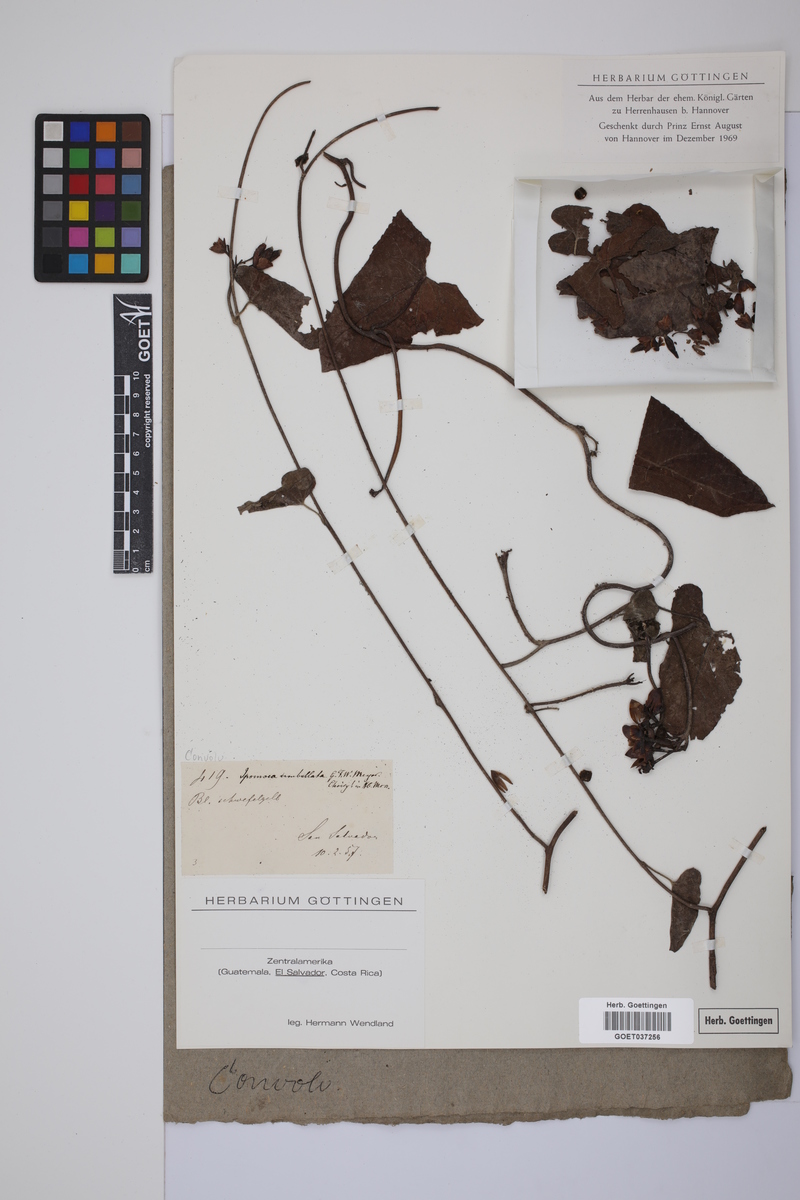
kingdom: Plantae
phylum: Tracheophyta
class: Magnoliopsida
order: Solanales
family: Convolvulaceae
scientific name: Convolvulaceae
